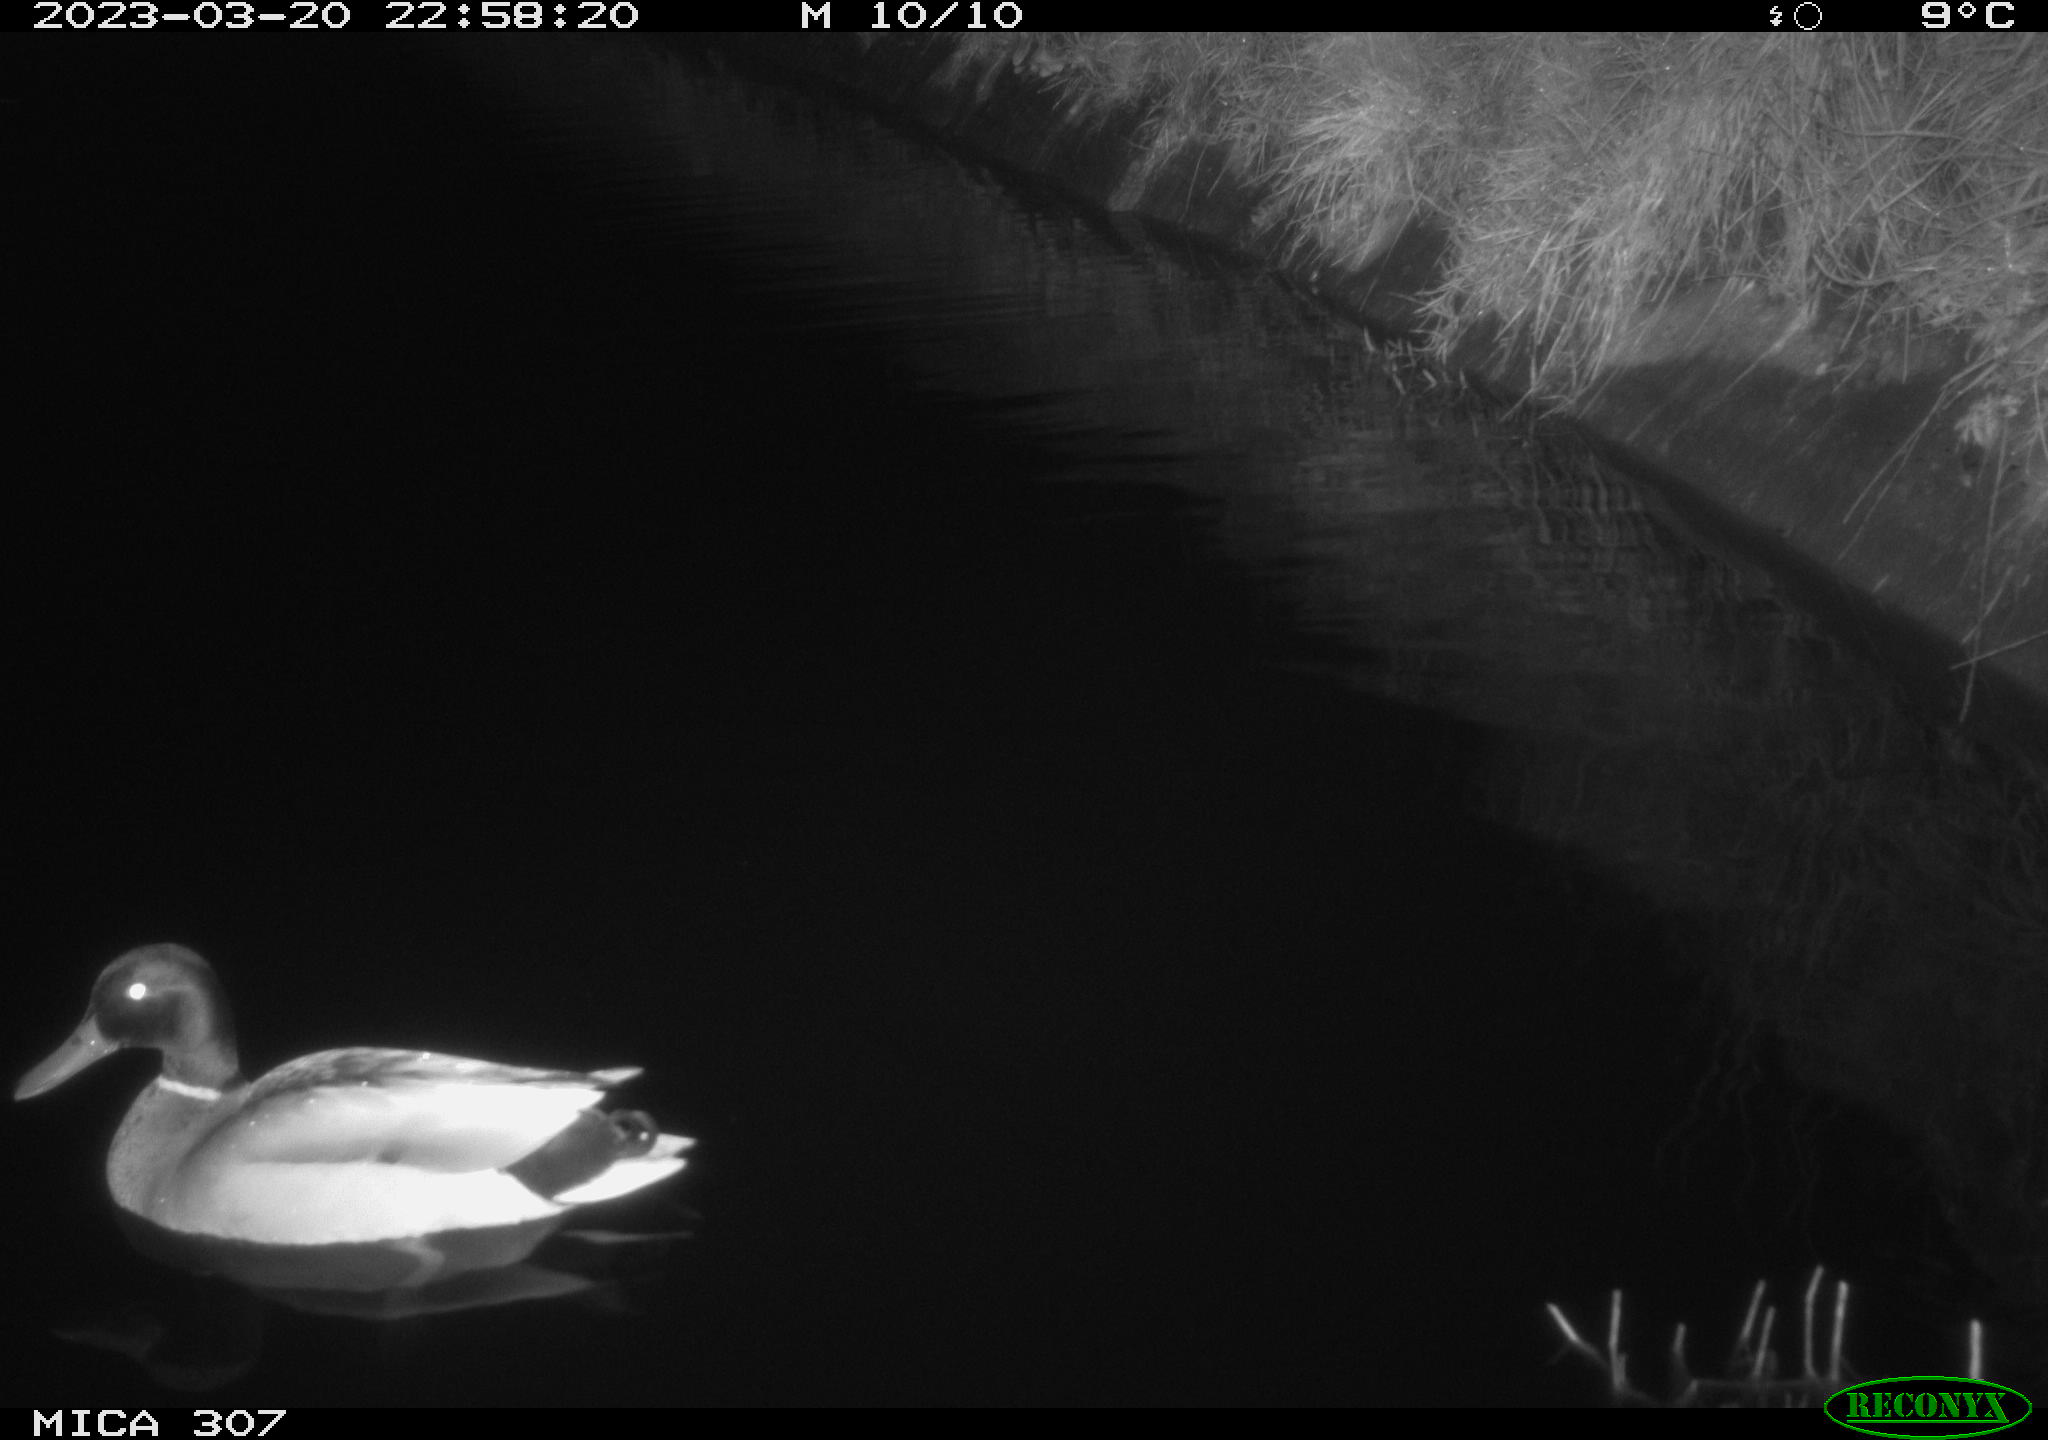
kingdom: Animalia
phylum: Chordata
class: Aves
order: Anseriformes
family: Anatidae
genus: Anas
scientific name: Anas
